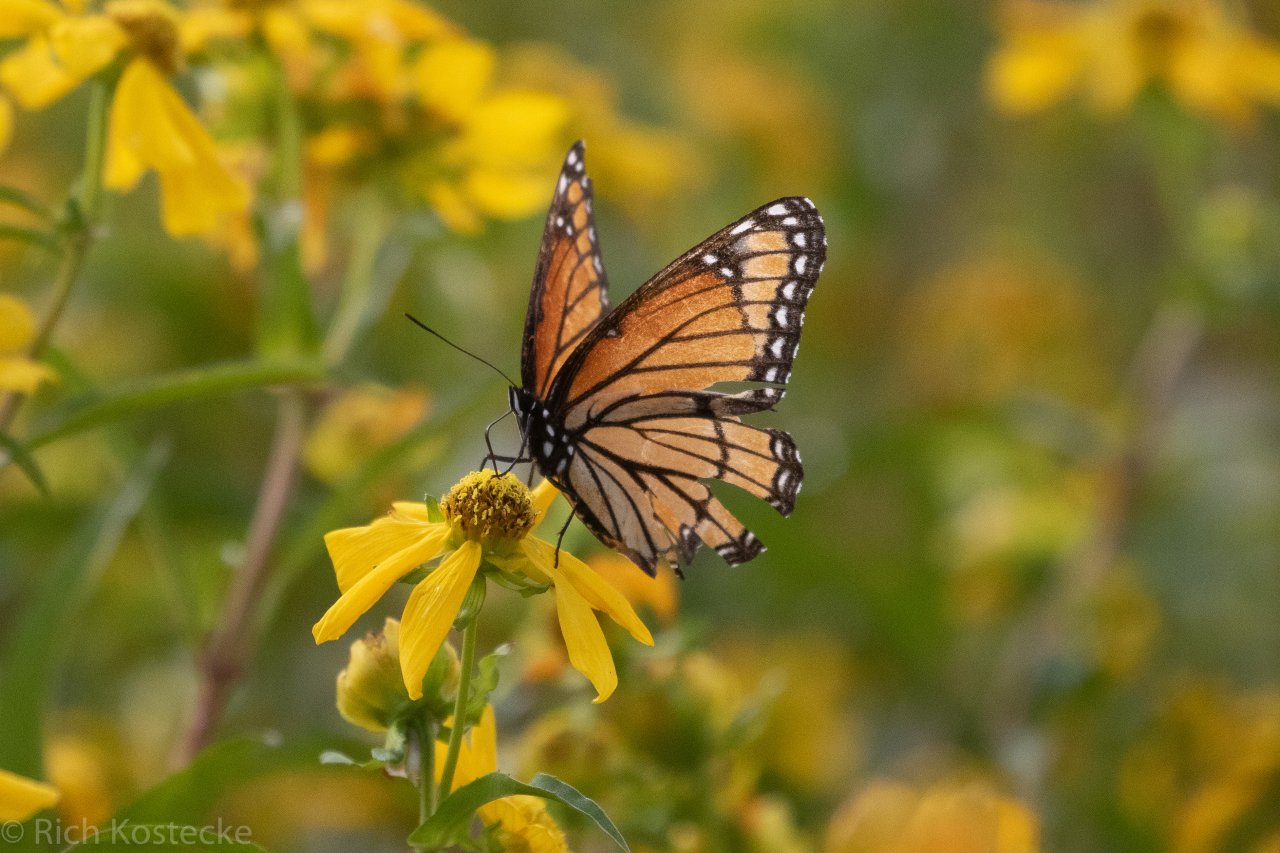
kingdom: Animalia
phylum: Arthropoda
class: Insecta
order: Lepidoptera
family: Nymphalidae
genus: Limenitis
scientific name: Limenitis archippus
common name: Viceroy
